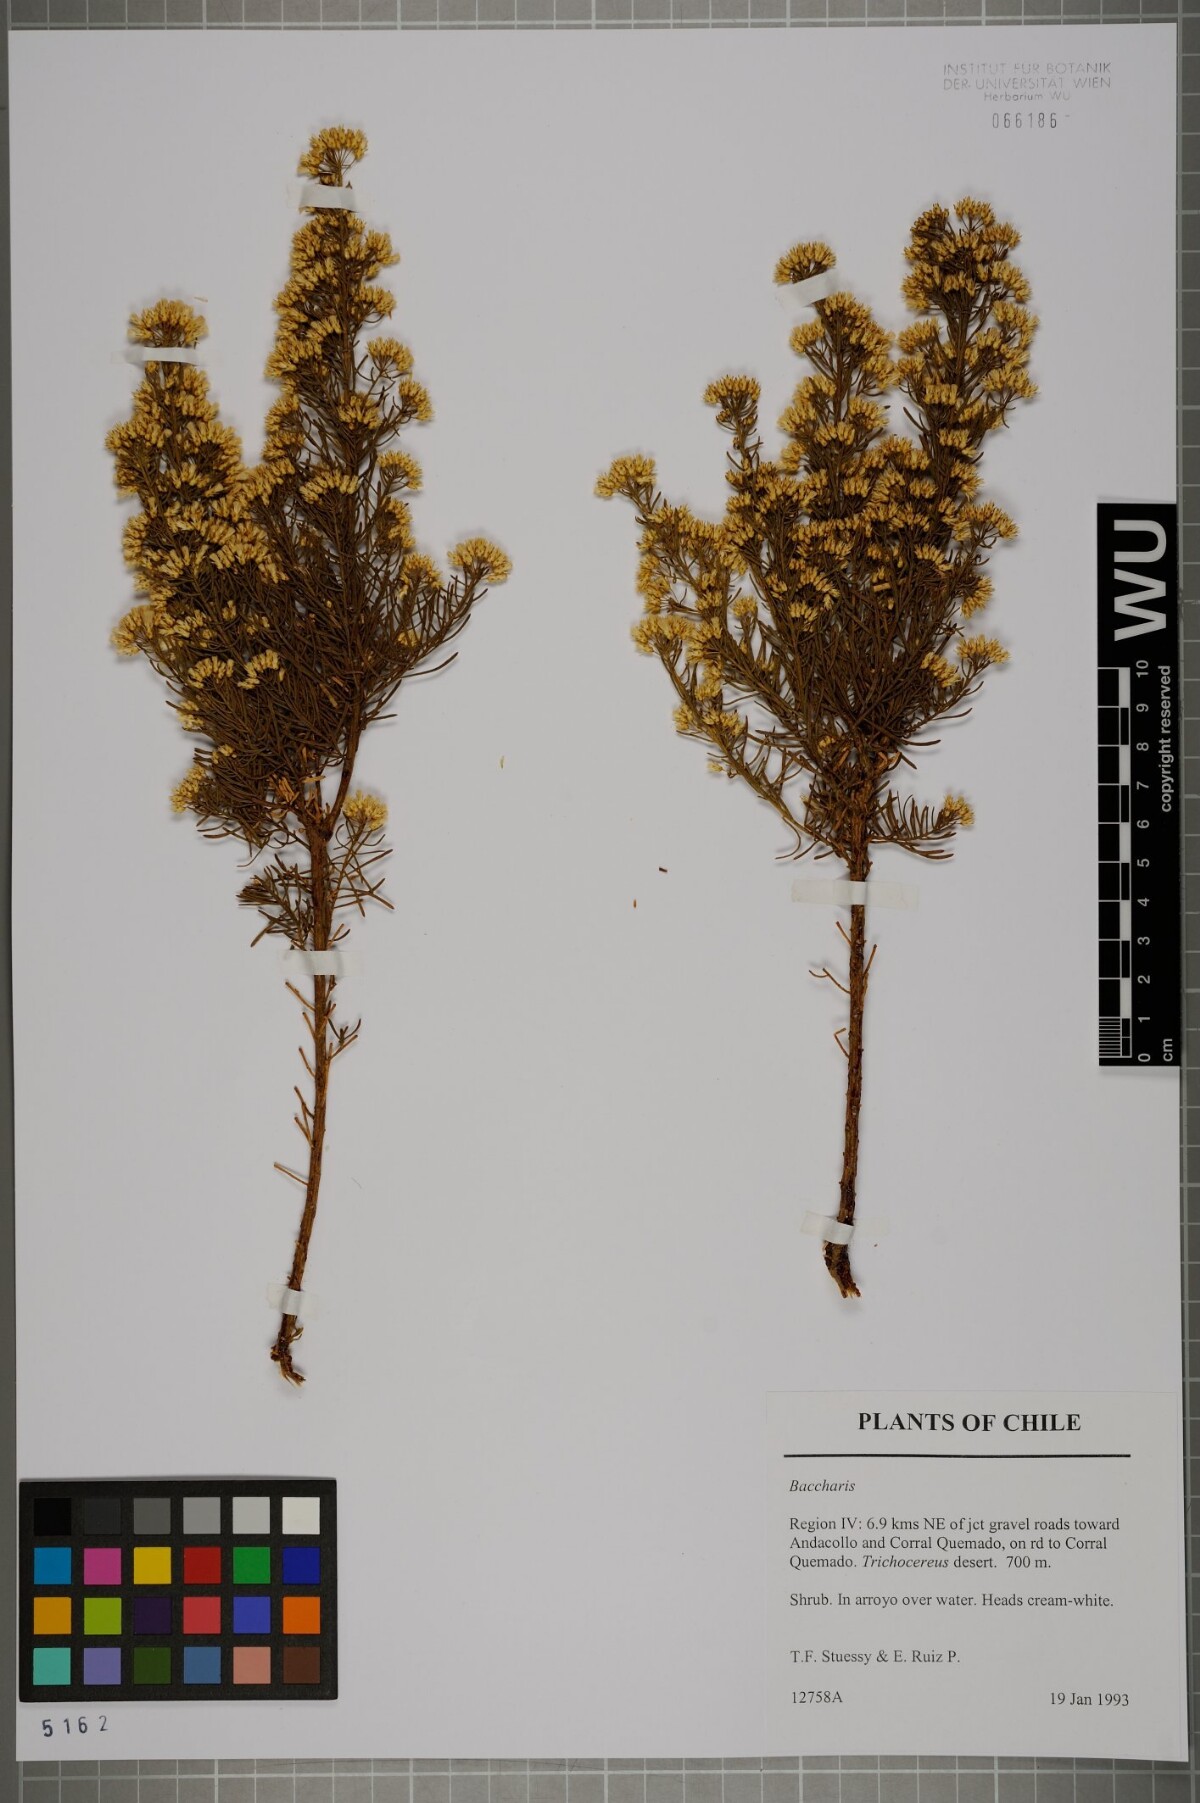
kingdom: Plantae
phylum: Tracheophyta
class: Magnoliopsida
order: Asterales
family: Asteraceae
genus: Baccharis
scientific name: Baccharis
